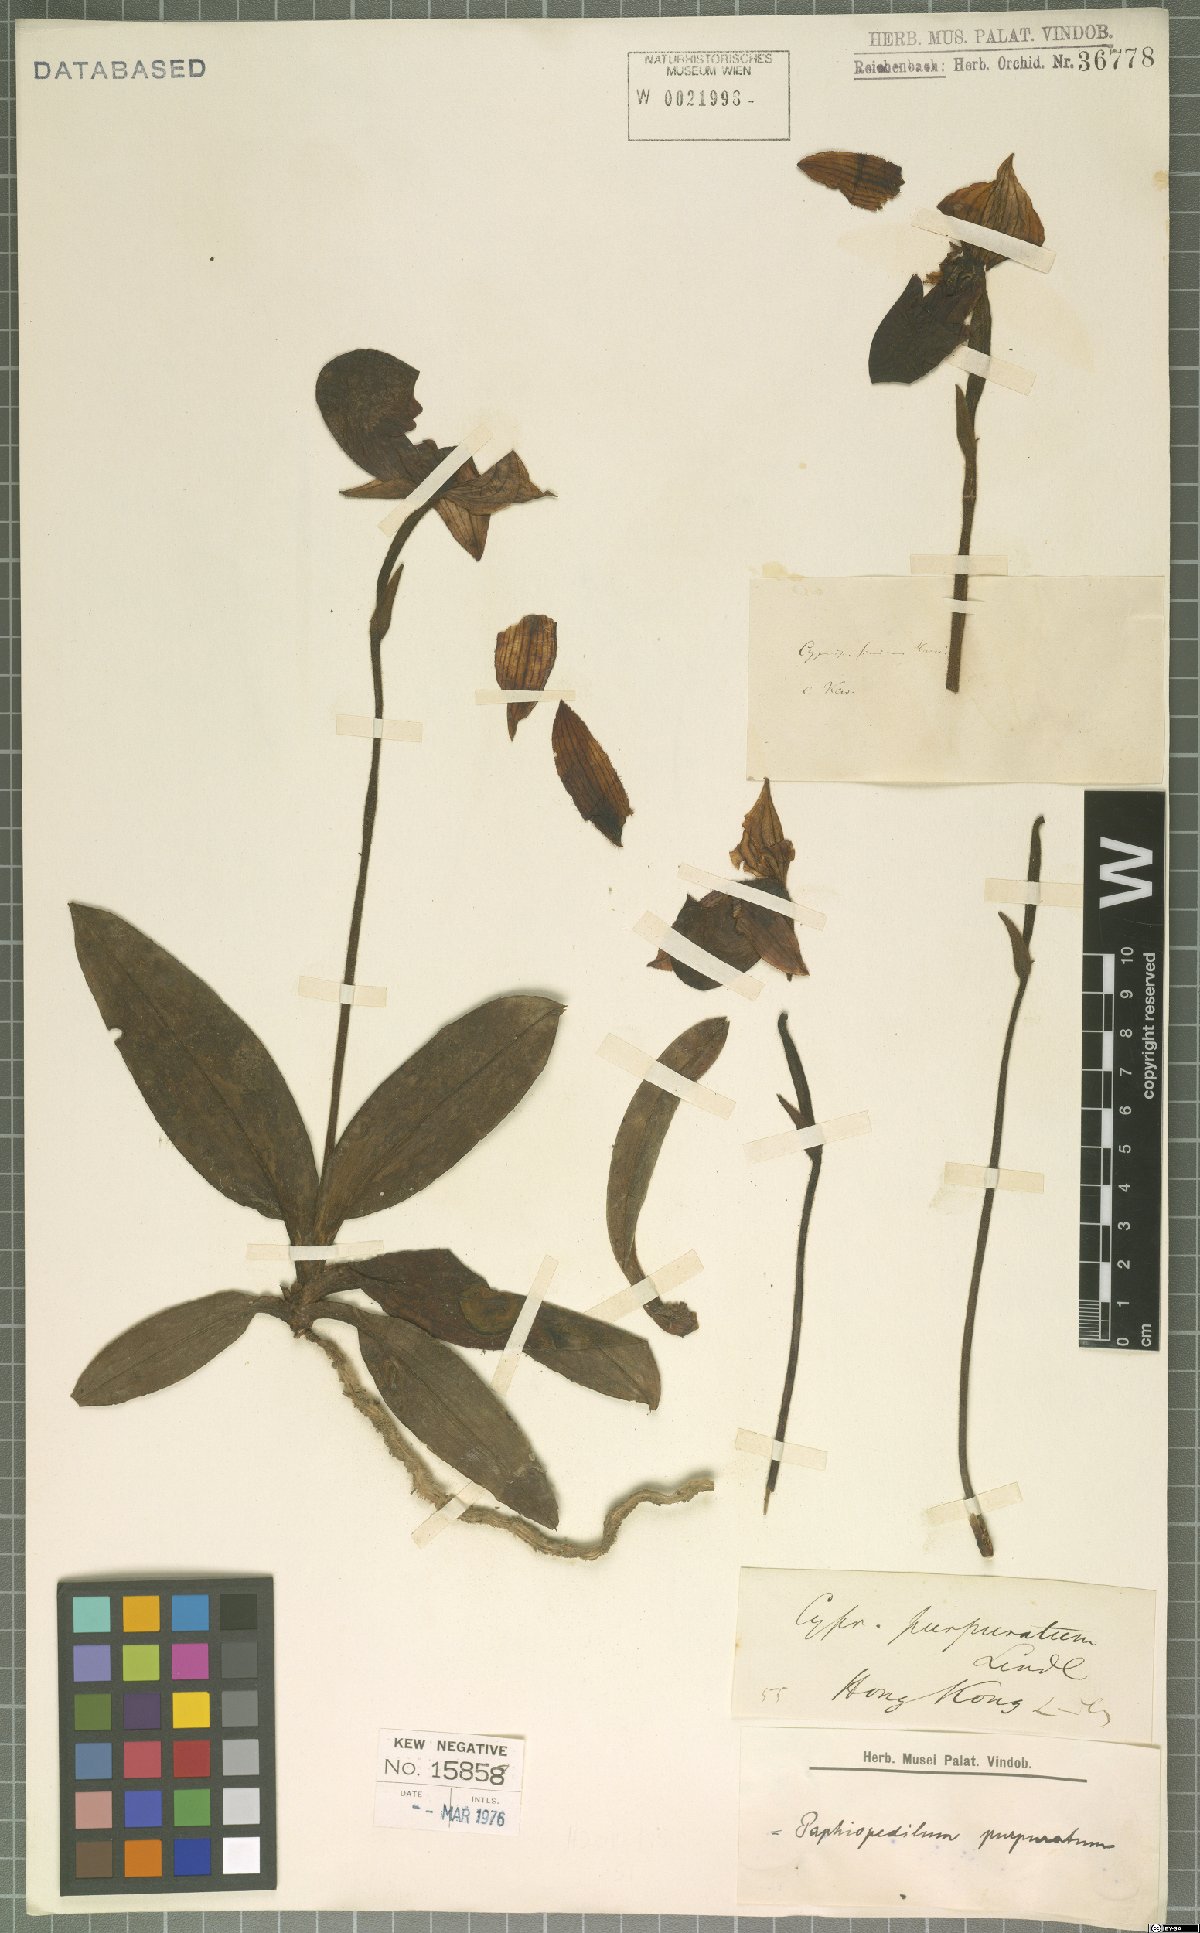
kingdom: Plantae
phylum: Tracheophyta
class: Liliopsida
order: Asparagales
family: Orchidaceae
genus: Paphiopedilum
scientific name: Paphiopedilum purpuratum
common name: Purple paphiopedilum
